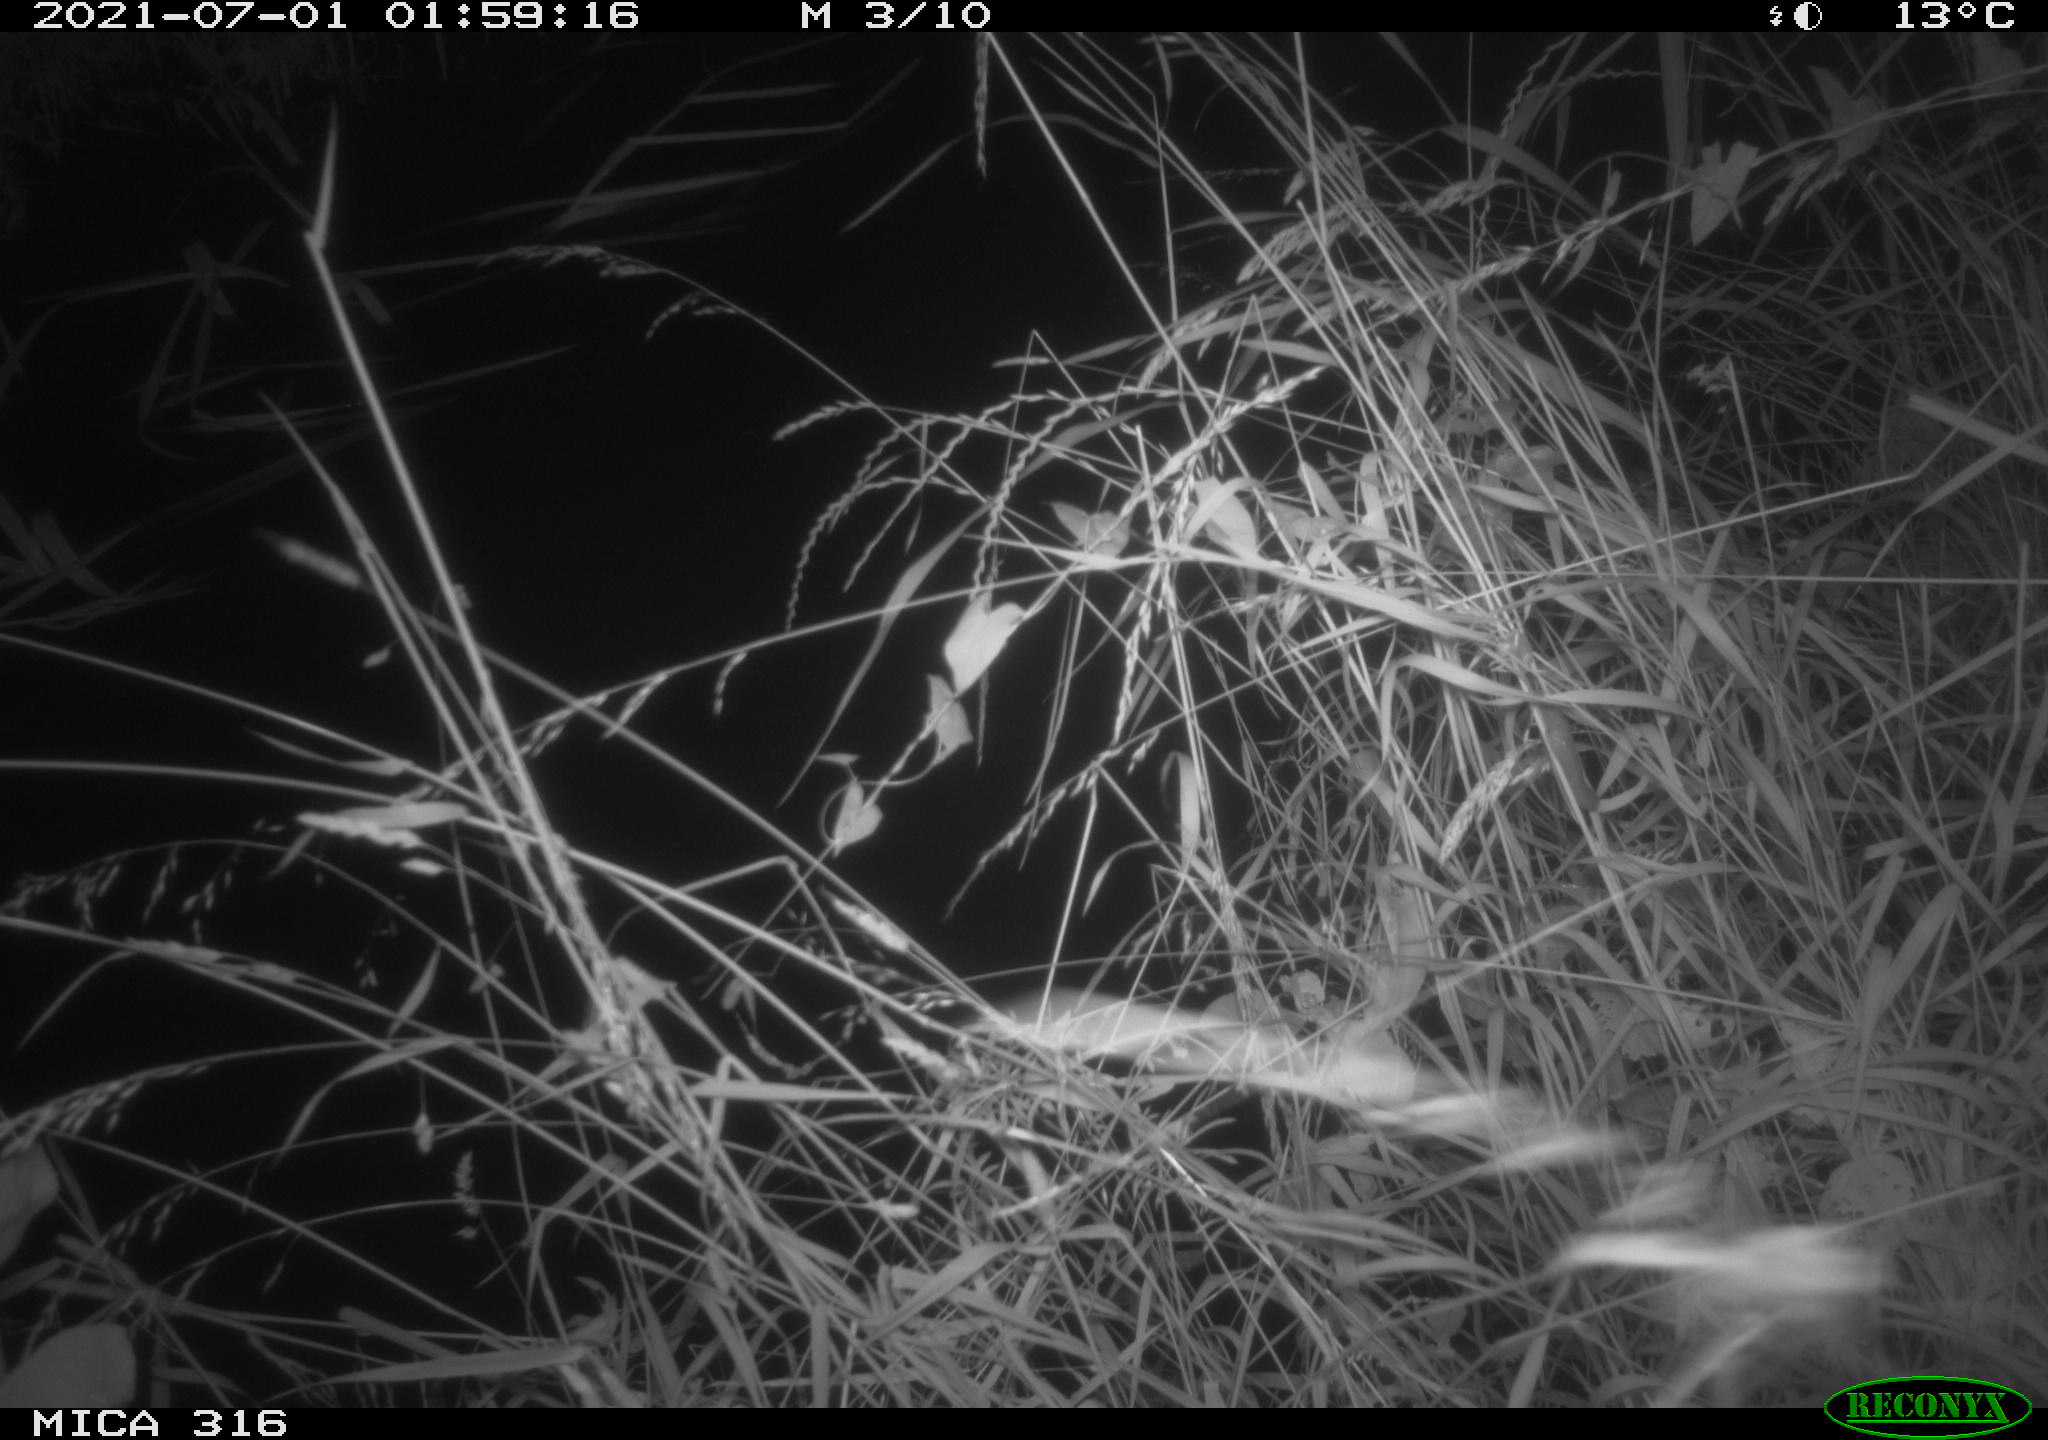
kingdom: Animalia
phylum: Chordata
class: Mammalia
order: Artiodactyla
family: Cervidae
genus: Capreolus
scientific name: Capreolus capreolus
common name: Western roe deer
